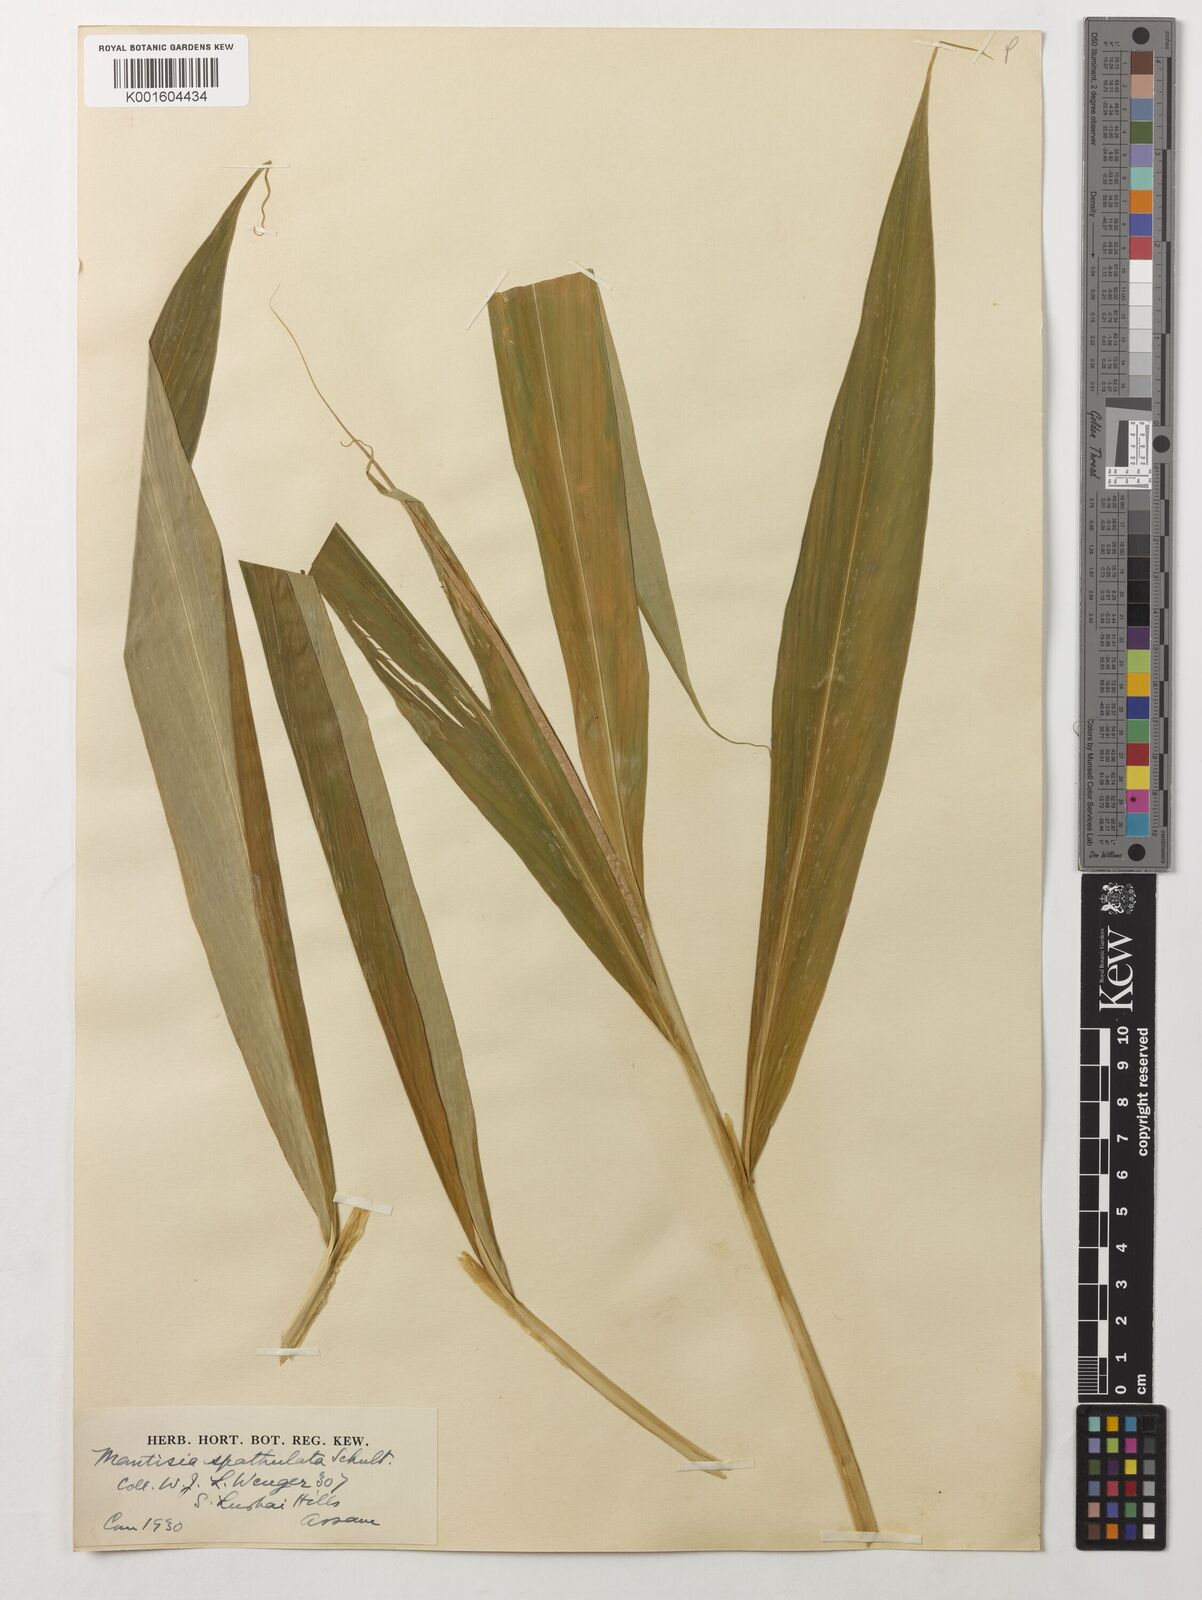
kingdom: Plantae
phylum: Tracheophyta
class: Liliopsida
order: Zingiberales
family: Zingiberaceae
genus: Globba
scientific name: Globba spathulata
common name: Dancing girl flower
